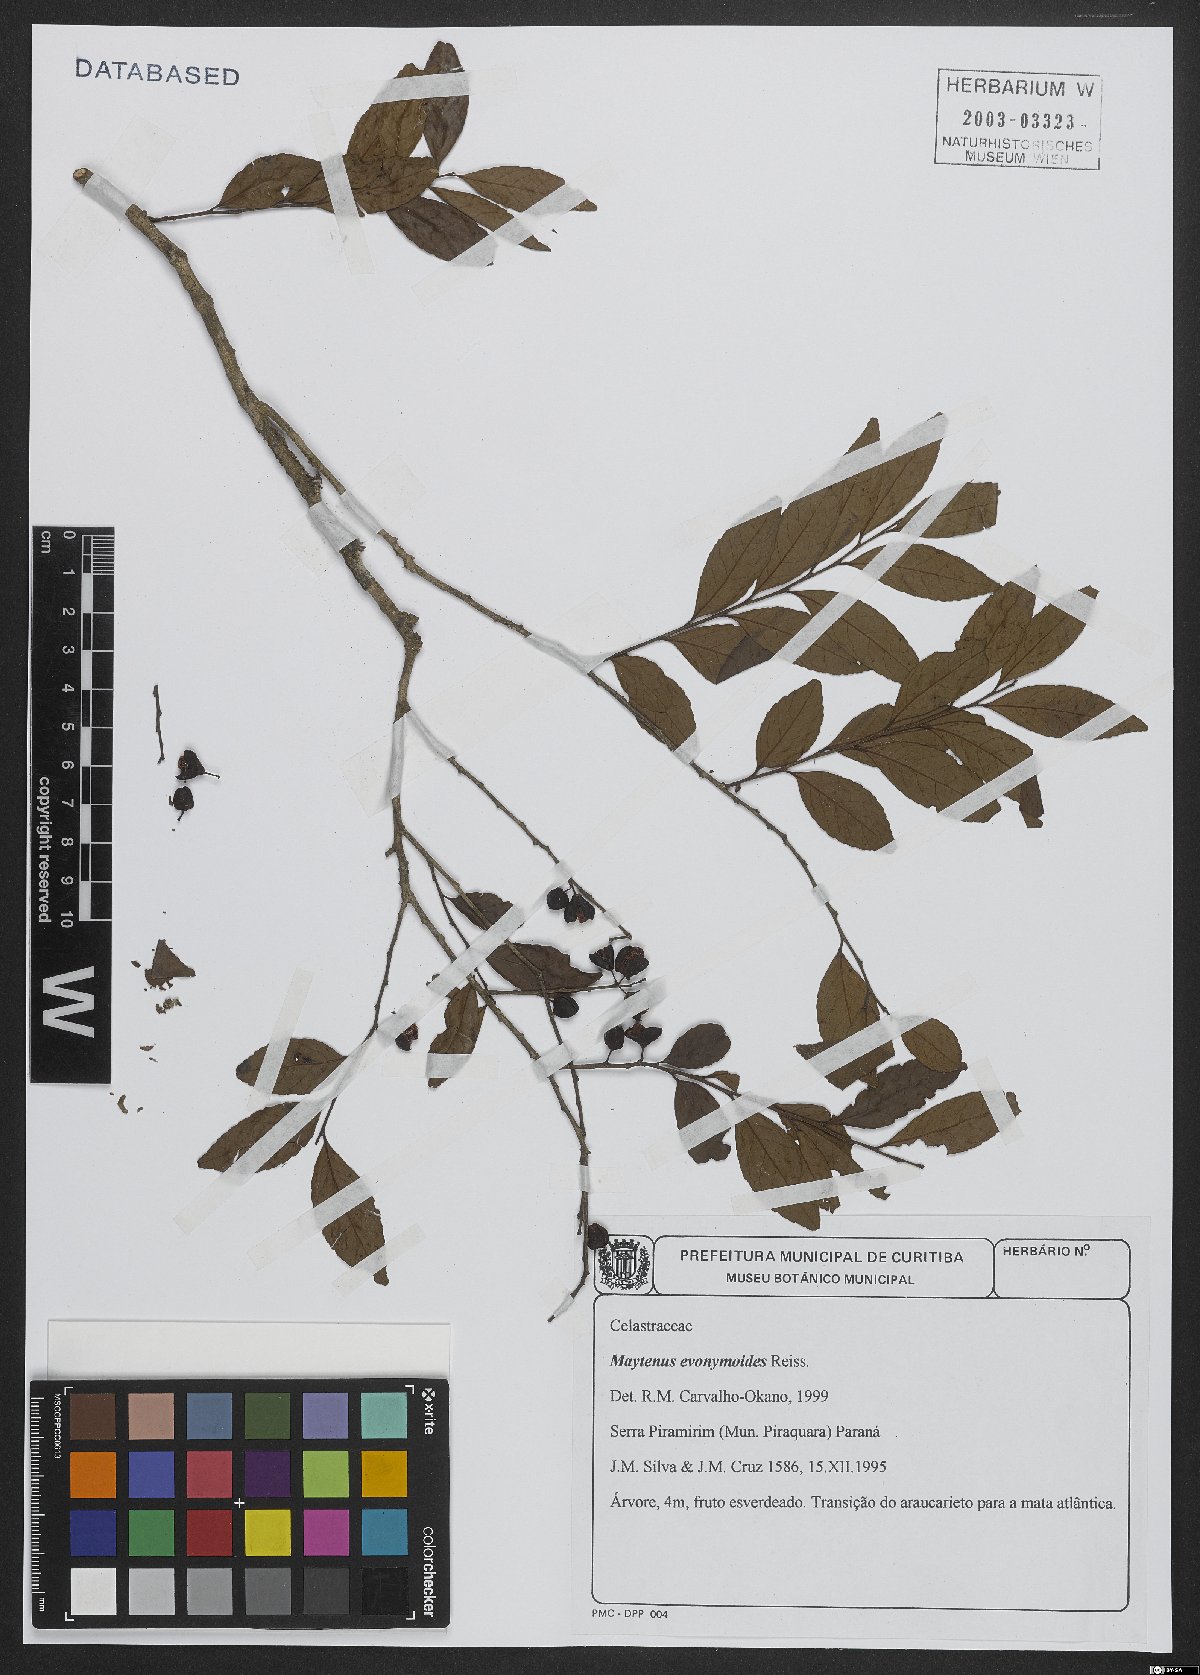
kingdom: Plantae
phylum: Tracheophyta
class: Magnoliopsida
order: Celastrales
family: Celastraceae
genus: Monteverdia
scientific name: Monteverdia evonymoides
